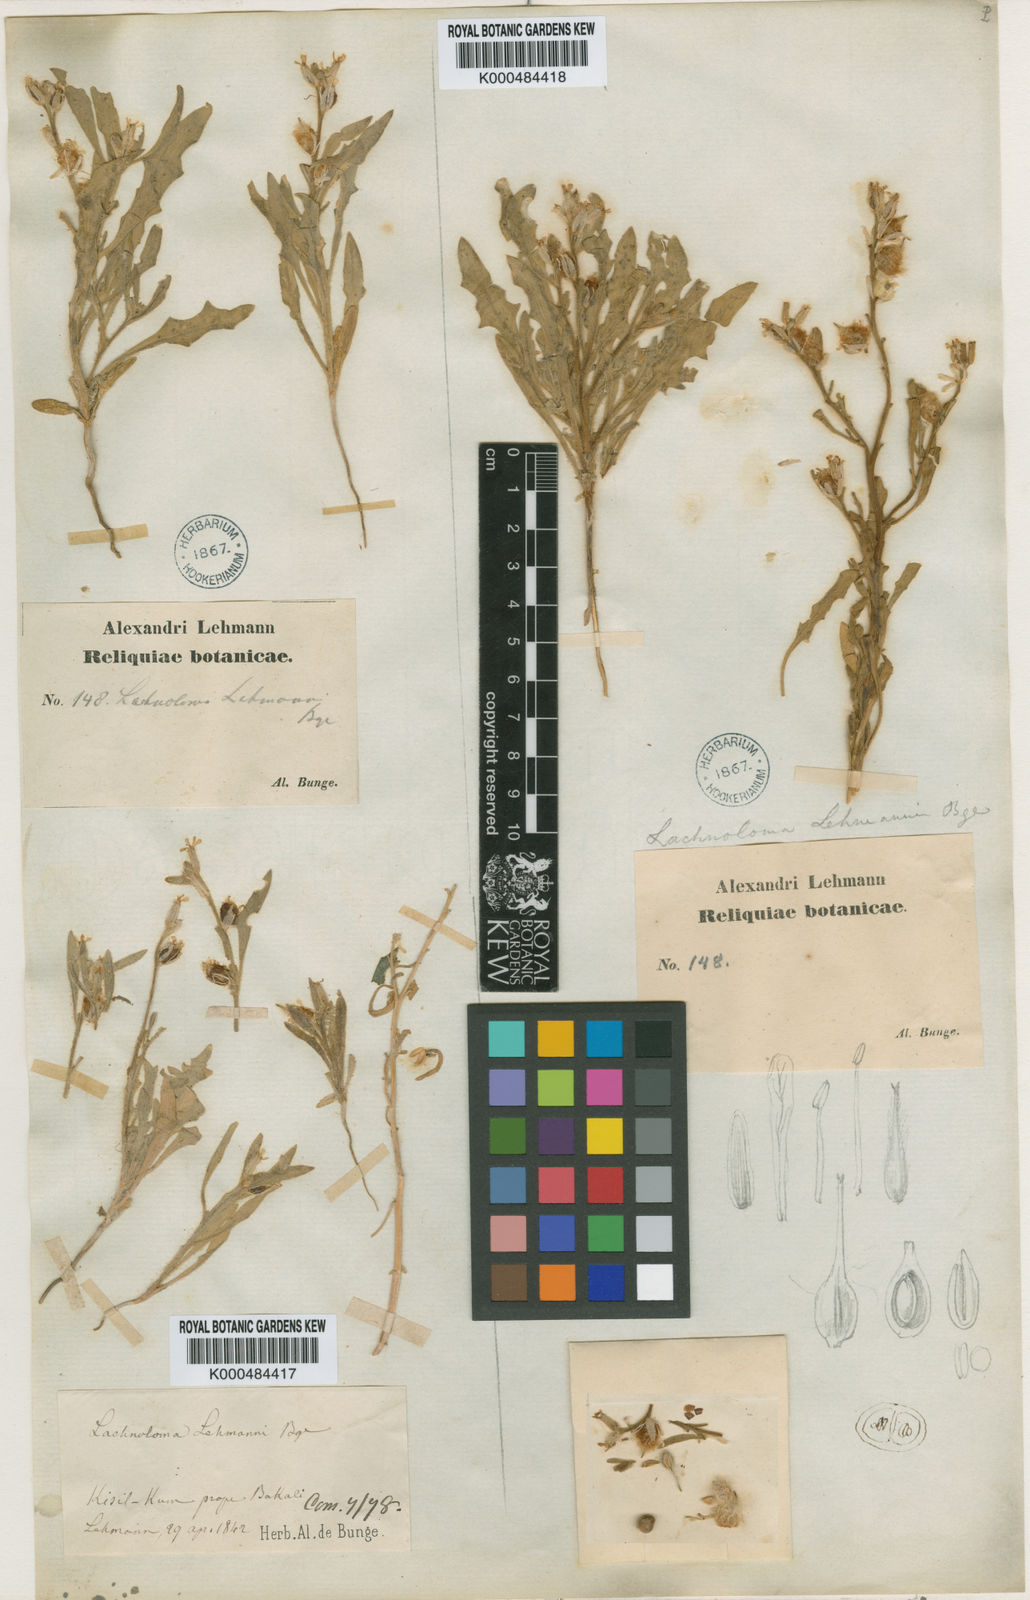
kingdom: Plantae
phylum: Tracheophyta
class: Magnoliopsida
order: Brassicales
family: Brassicaceae
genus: Lachnoloma
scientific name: Lachnoloma lehmannii
